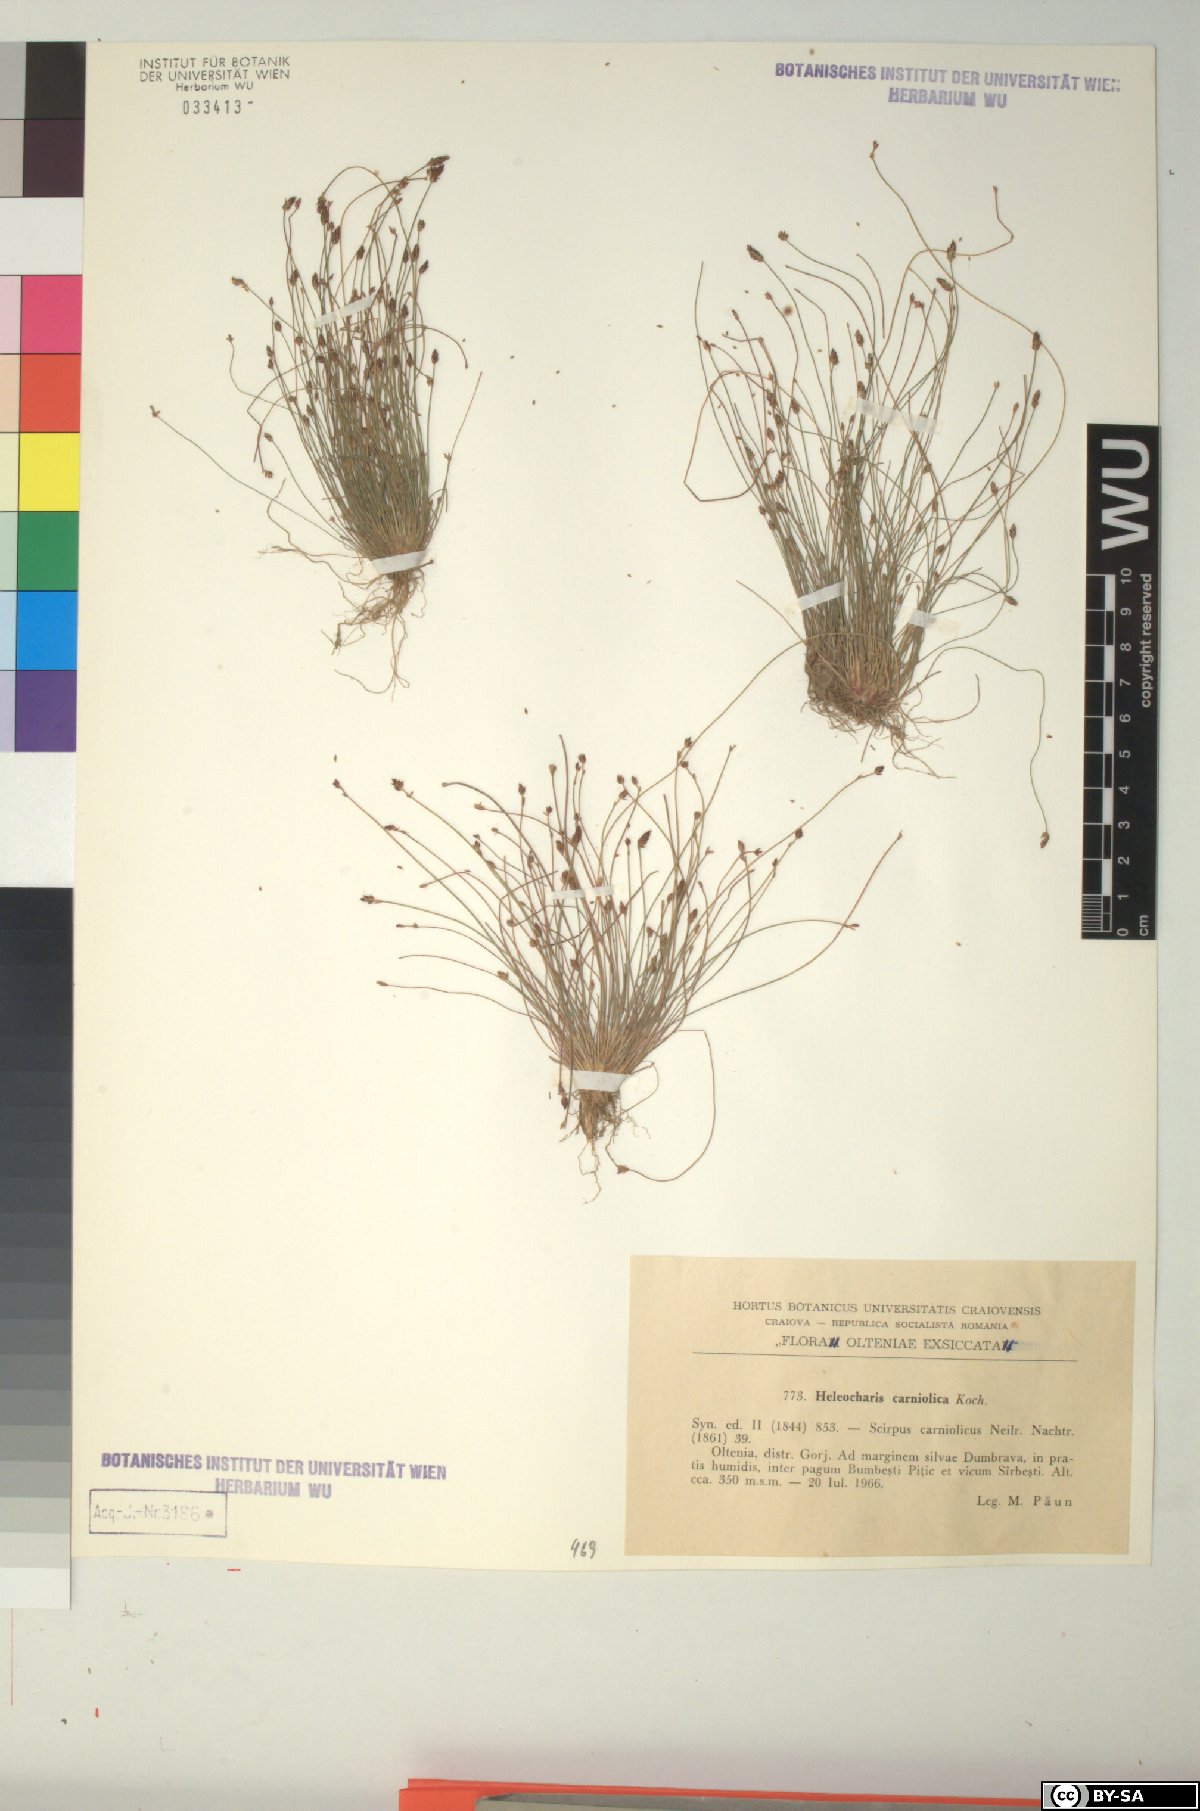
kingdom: Plantae
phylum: Tracheophyta
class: Liliopsida
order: Poales
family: Cyperaceae
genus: Eleocharis
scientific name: Eleocharis carniolica
